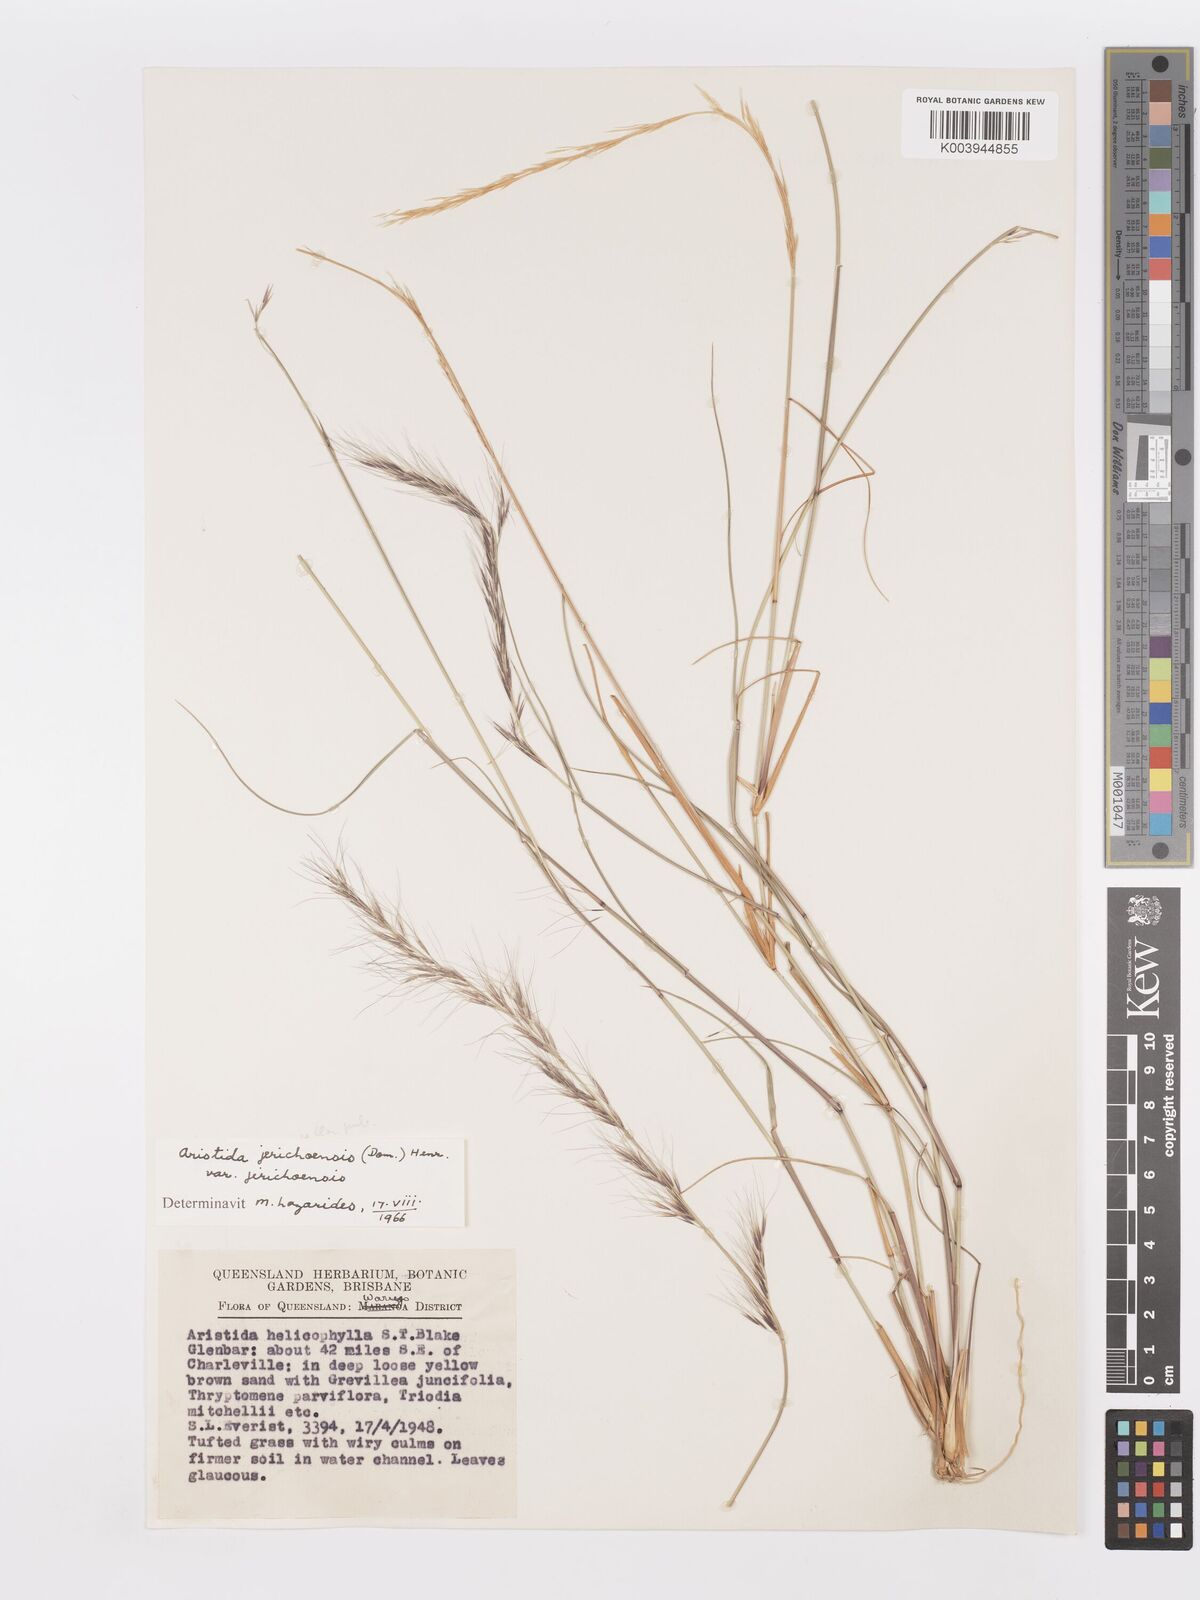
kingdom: Plantae
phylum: Tracheophyta
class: Liliopsida
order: Poales
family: Poaceae
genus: Aristida
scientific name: Aristida jerichoensis
